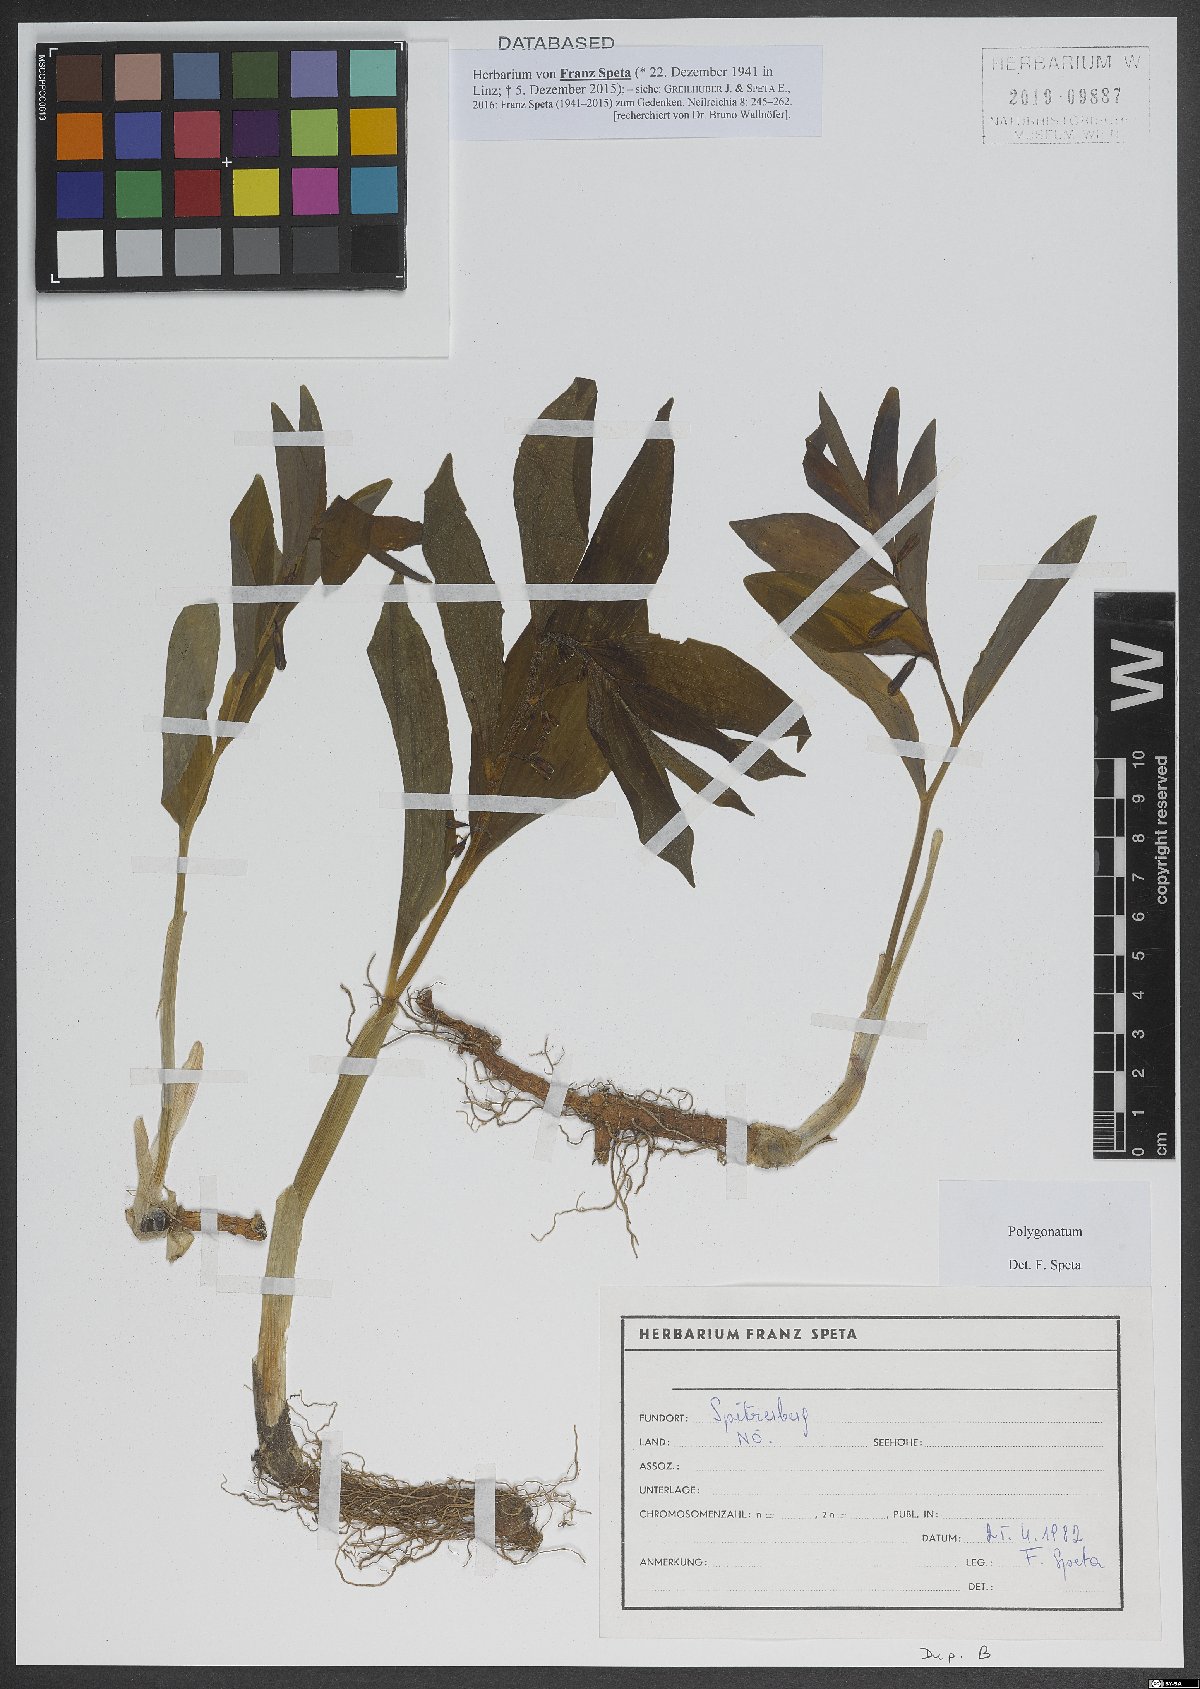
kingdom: Plantae
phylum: Tracheophyta
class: Liliopsida
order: Asparagales
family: Asparagaceae
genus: Polygonatum
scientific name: Polygonatum
